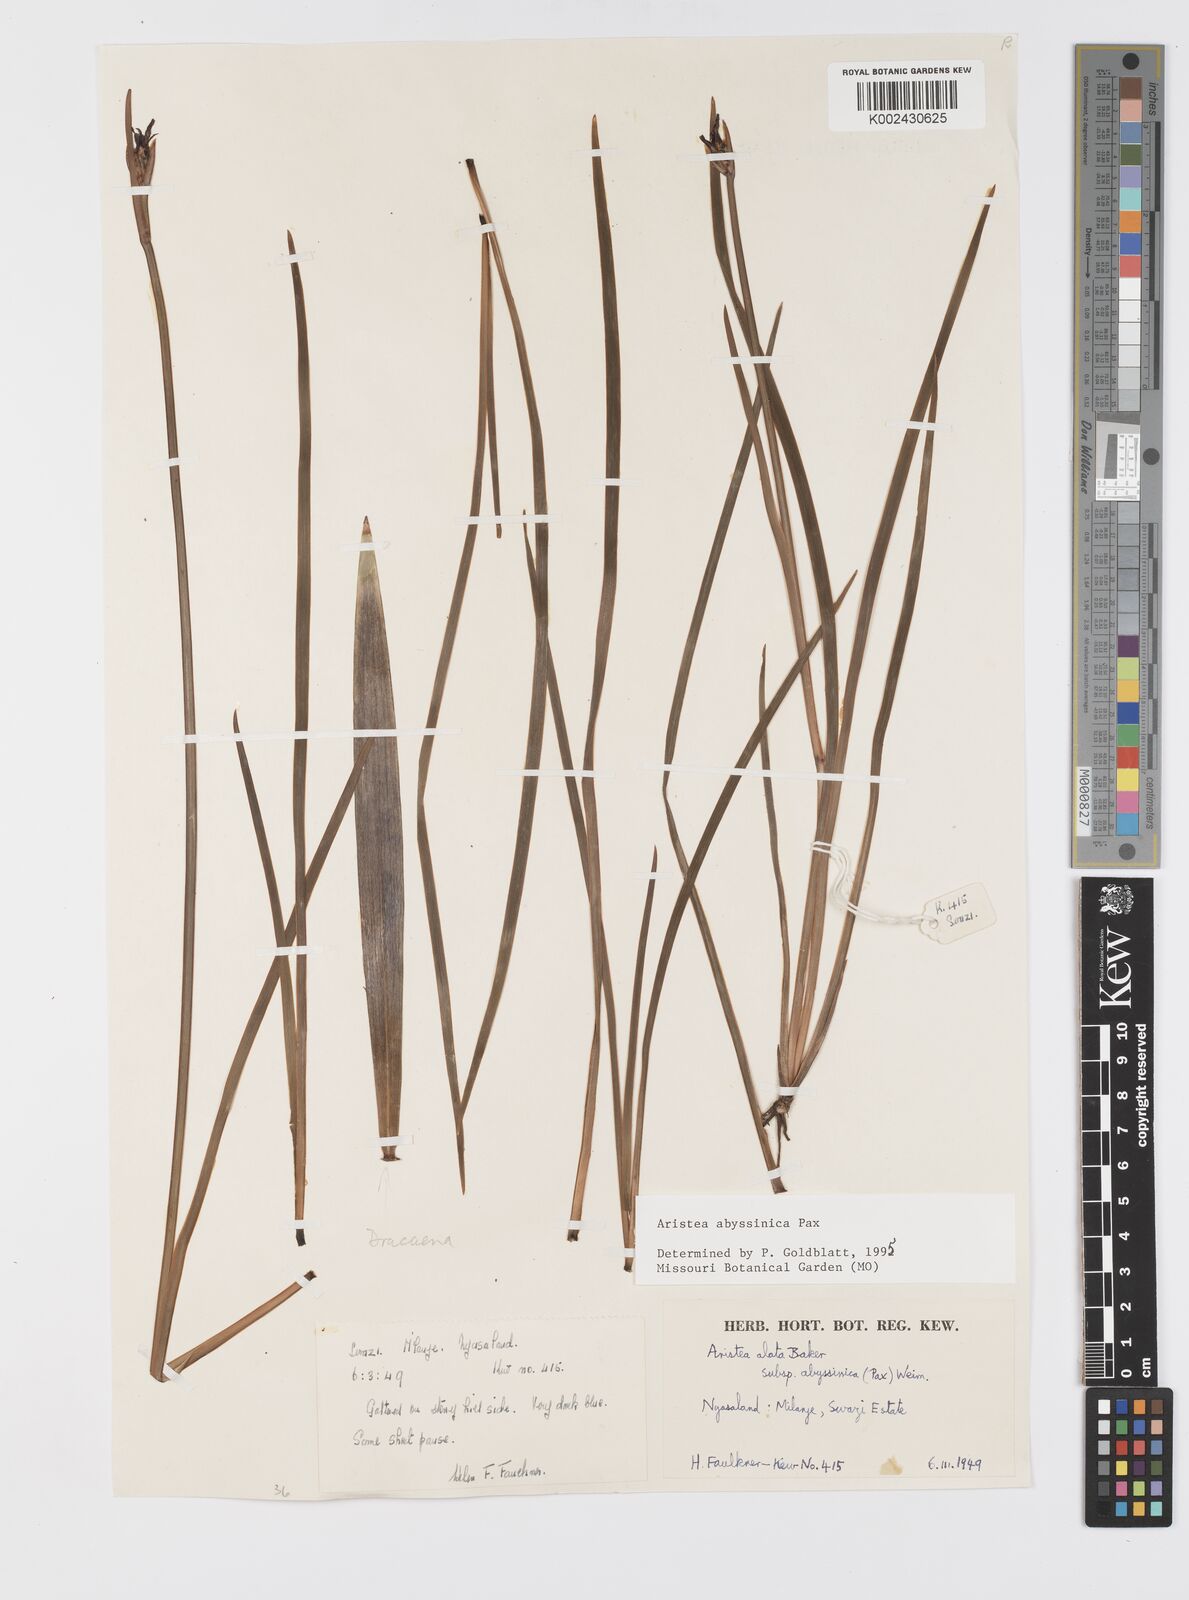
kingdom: Plantae
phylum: Tracheophyta
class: Liliopsida
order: Asparagales
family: Iridaceae
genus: Aristea
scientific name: Aristea abyssinica
